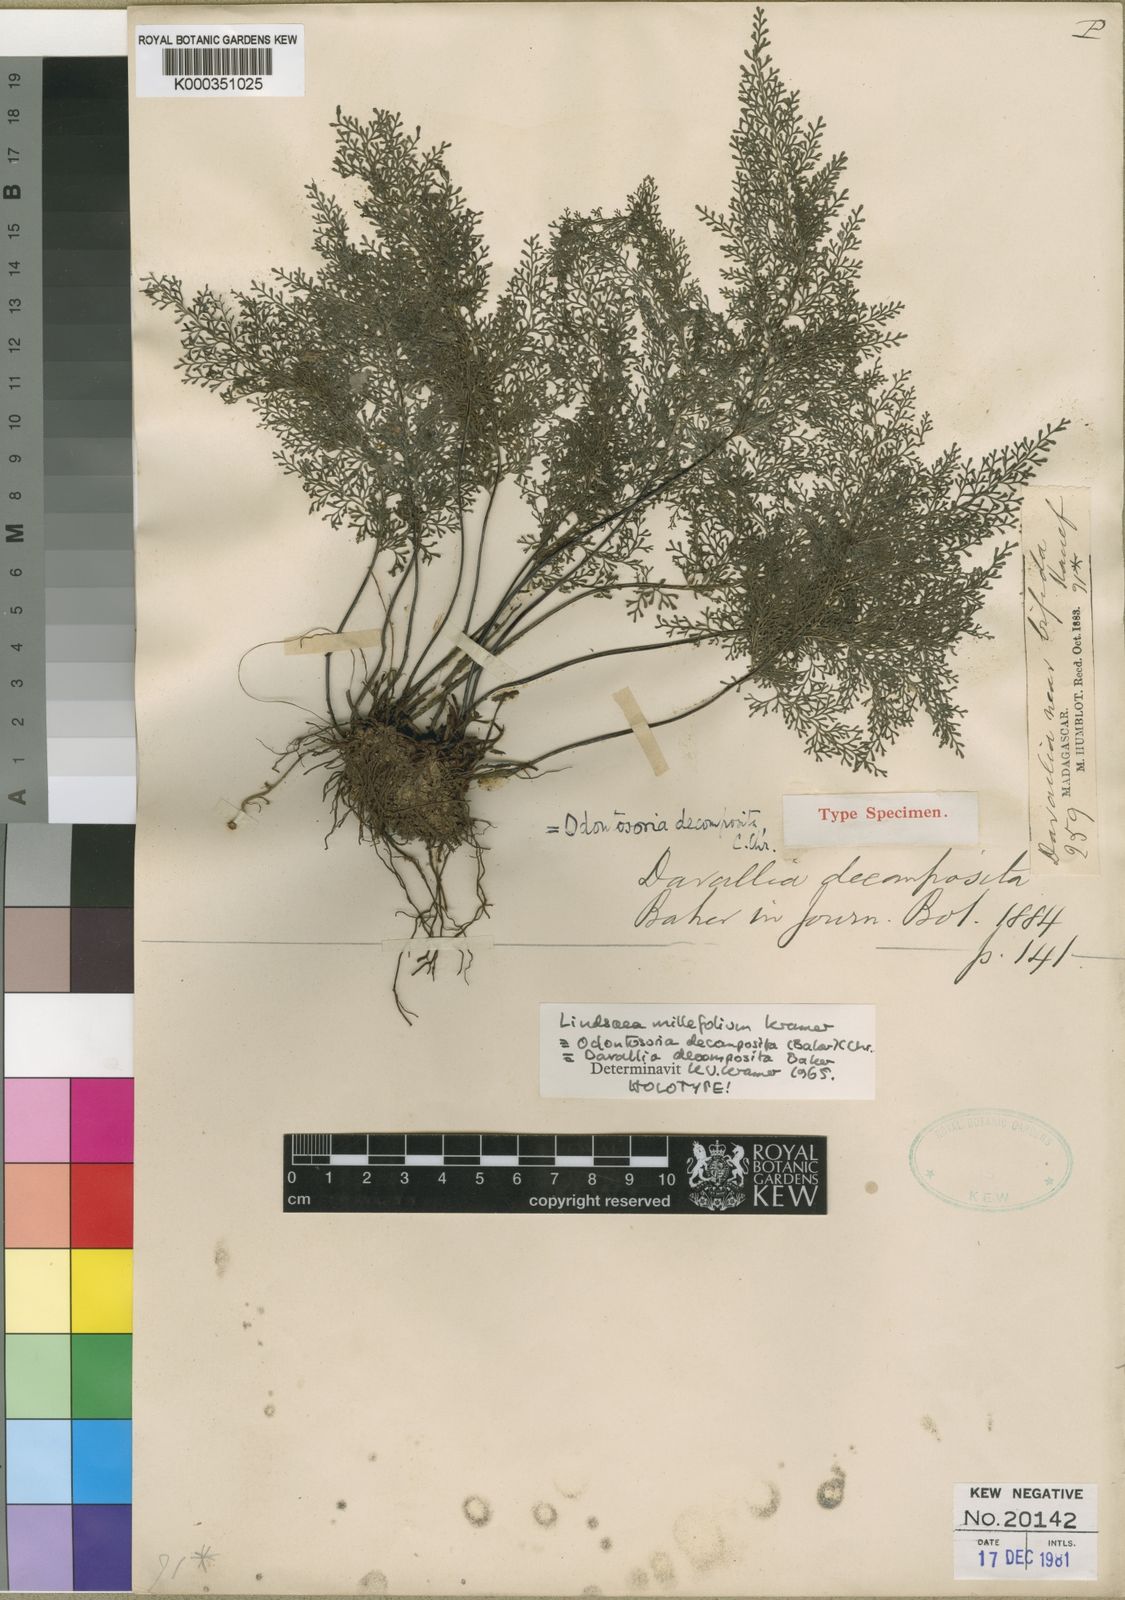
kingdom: Plantae
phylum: Tracheophyta
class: Polypodiopsida
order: Polypodiales
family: Lindsaeaceae
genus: Odontosoria
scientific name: Odontosoria decomposita
